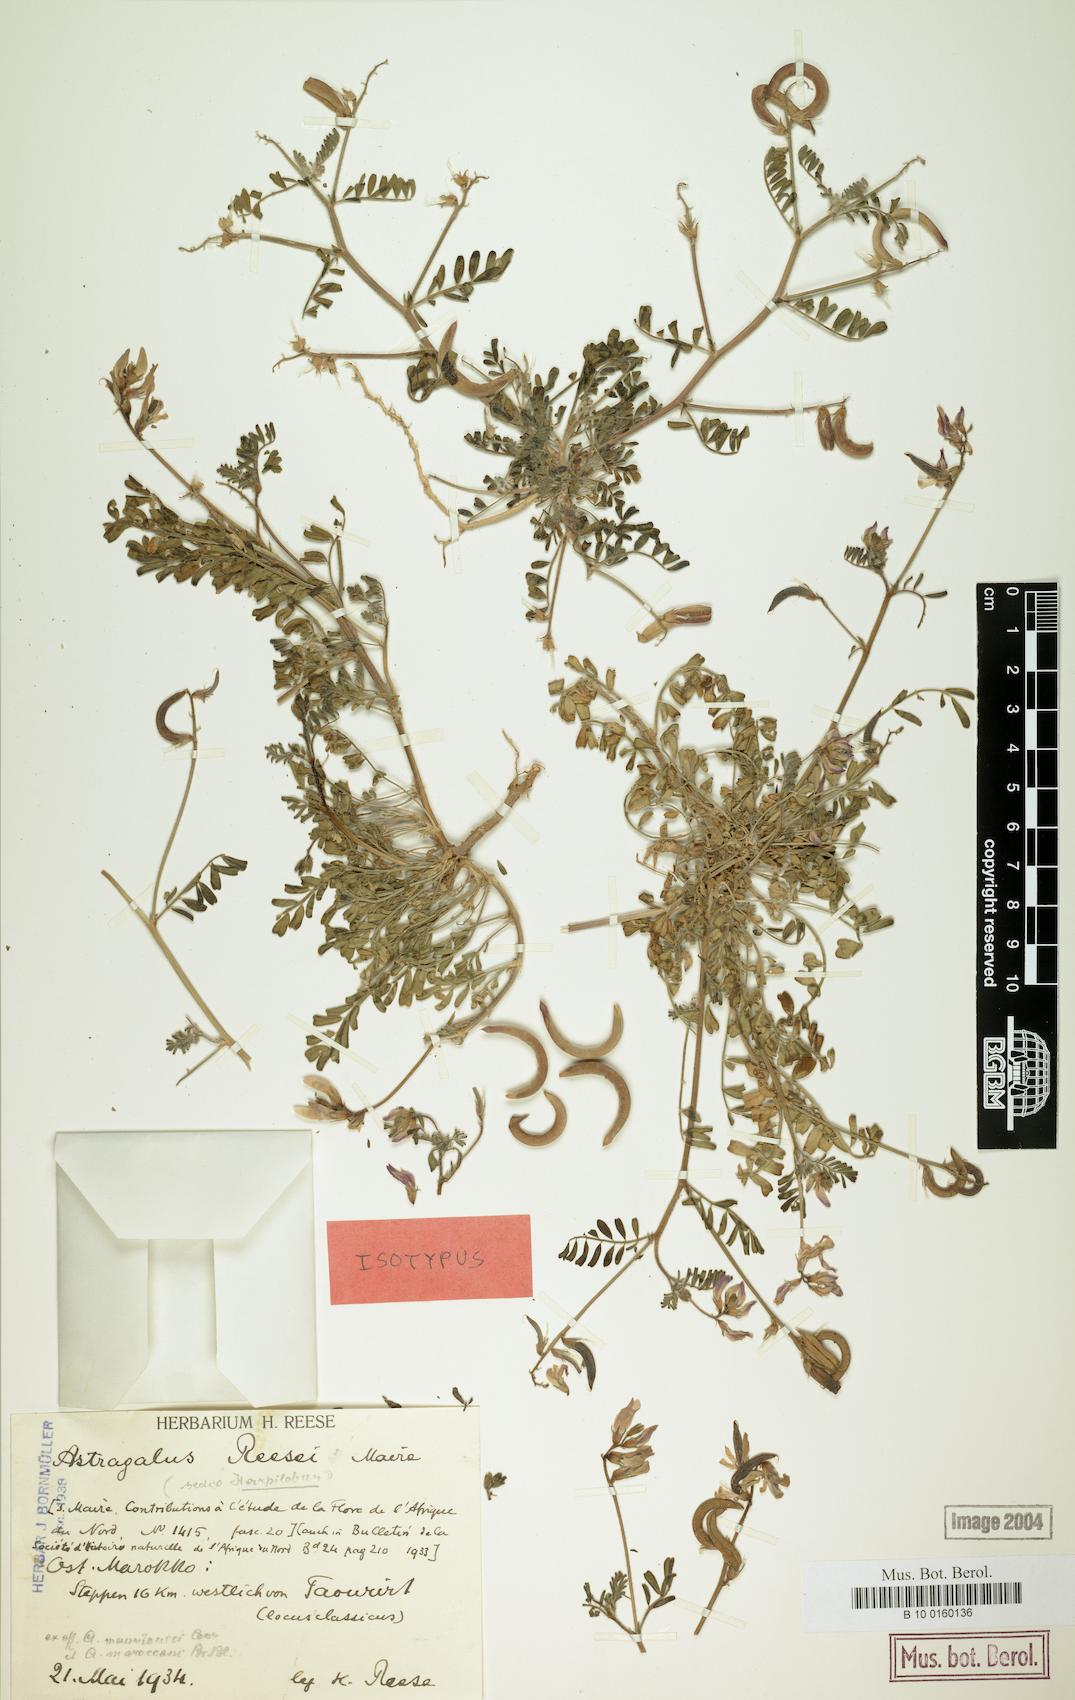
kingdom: Plantae
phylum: Tracheophyta
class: Magnoliopsida
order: Fabales
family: Fabaceae
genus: Astragalus
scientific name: Astragalus reesei
